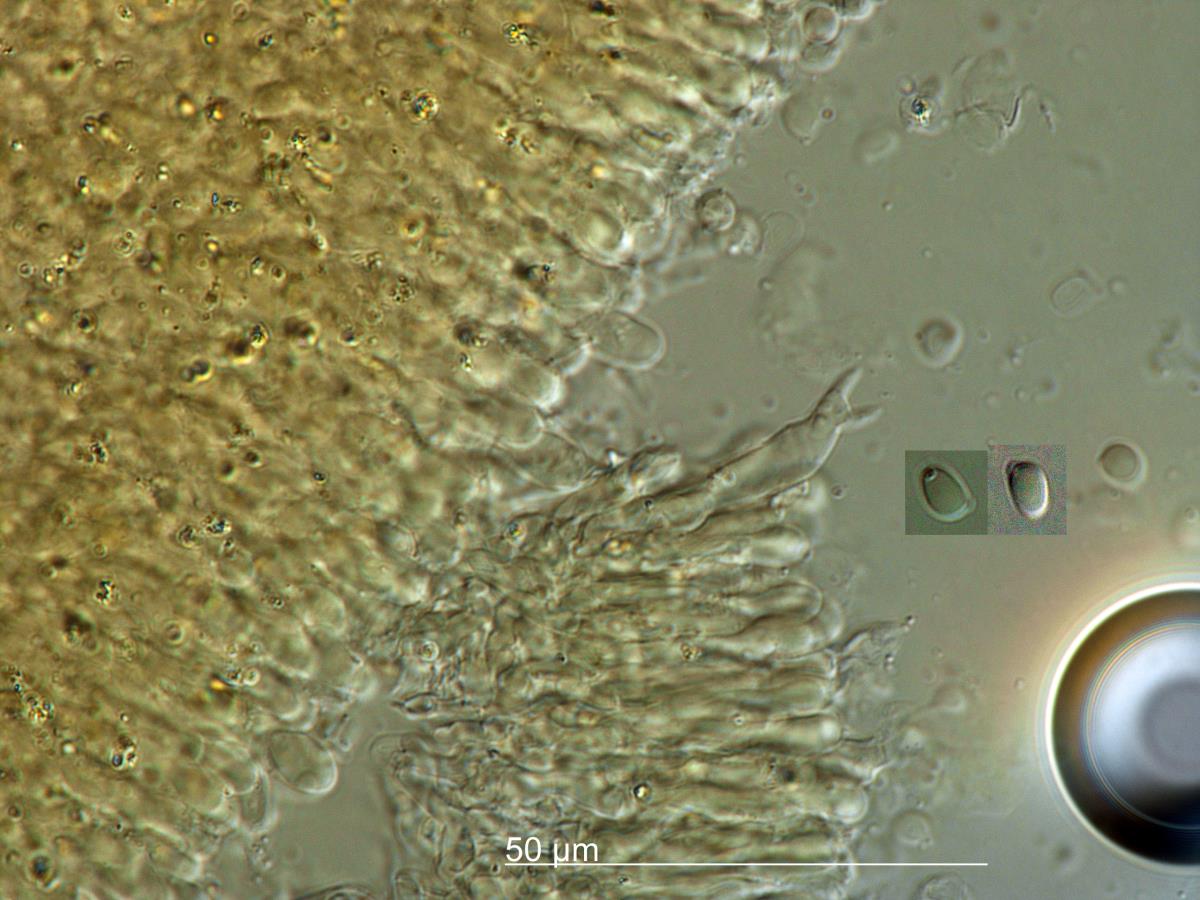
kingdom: Fungi
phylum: Basidiomycota
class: Agaricomycetes
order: Agaricales
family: Tricholomataceae
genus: Clitocybe
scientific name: Clitocybe
